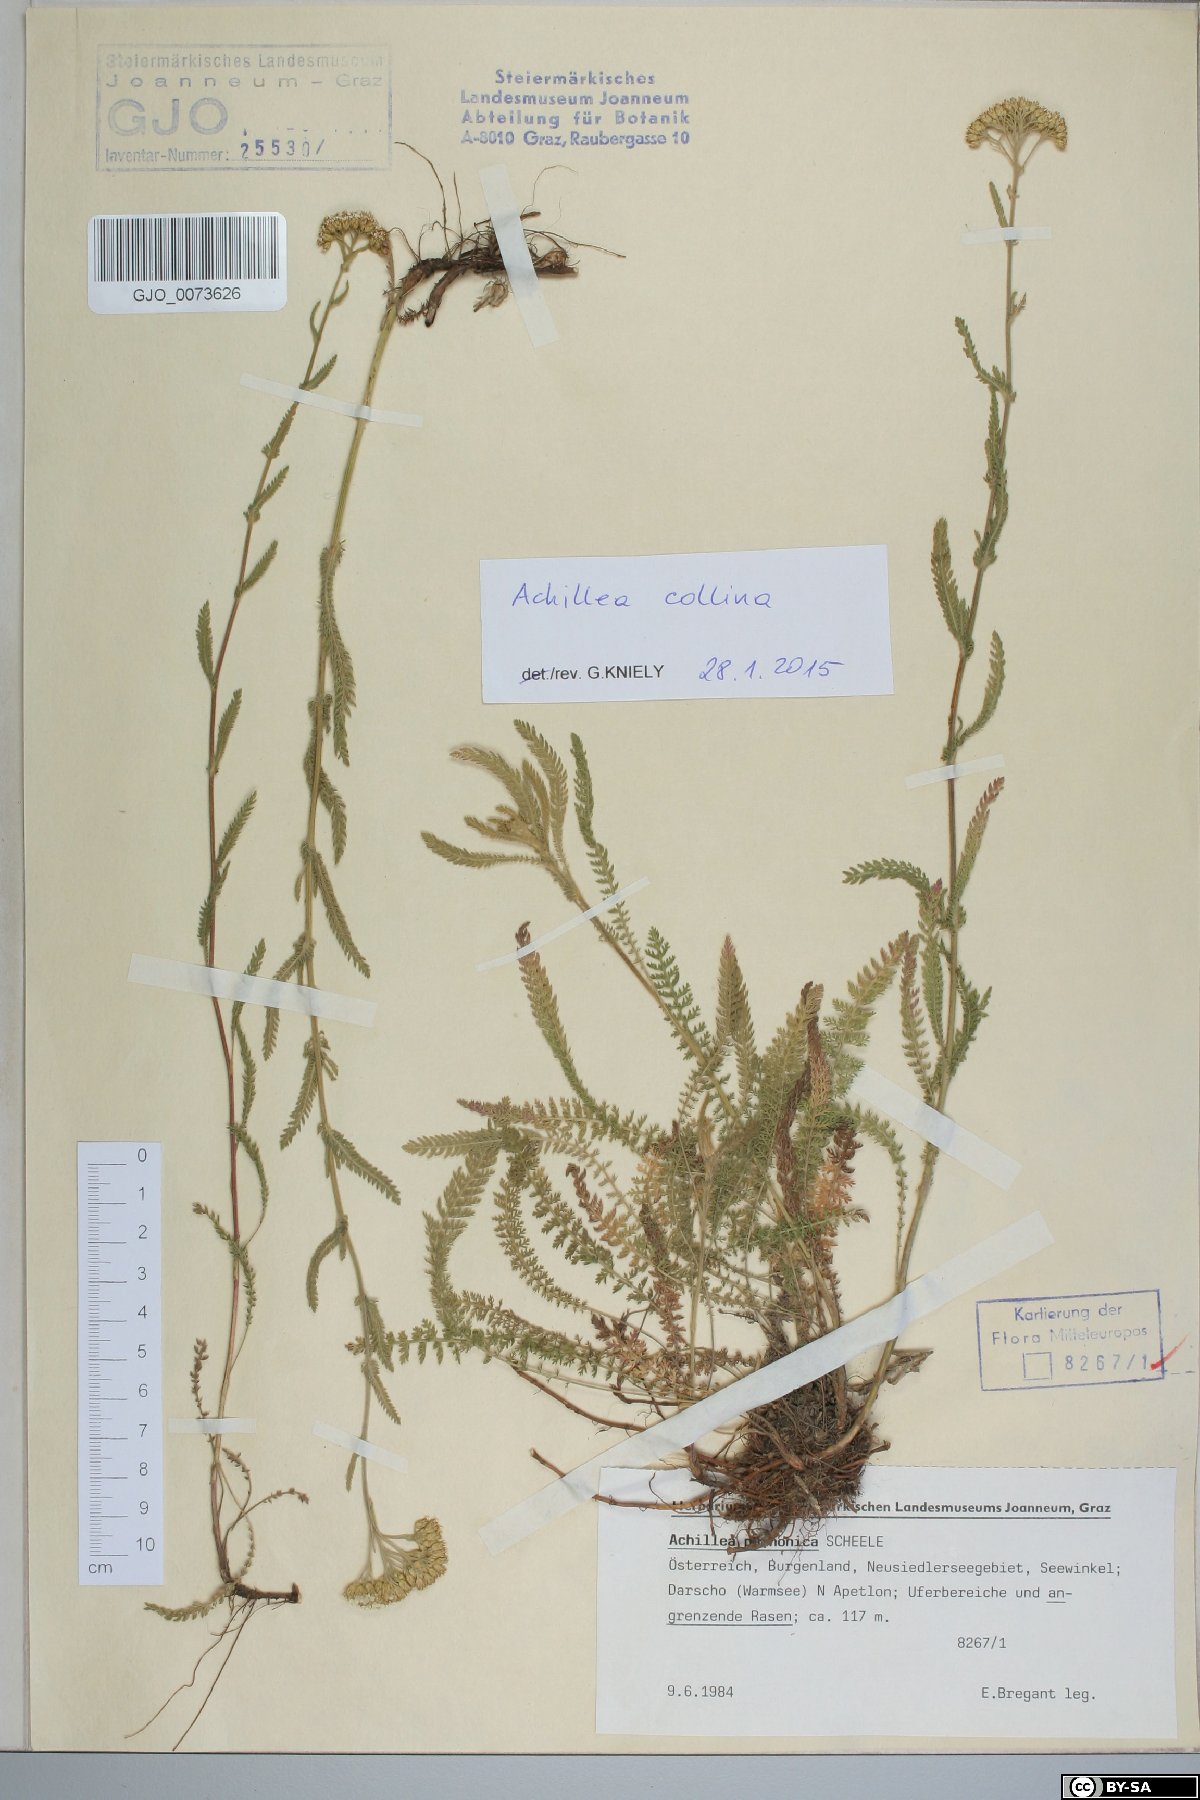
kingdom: Plantae
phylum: Tracheophyta
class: Magnoliopsida
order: Asterales
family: Asteraceae
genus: Achillea
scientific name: Achillea collina
